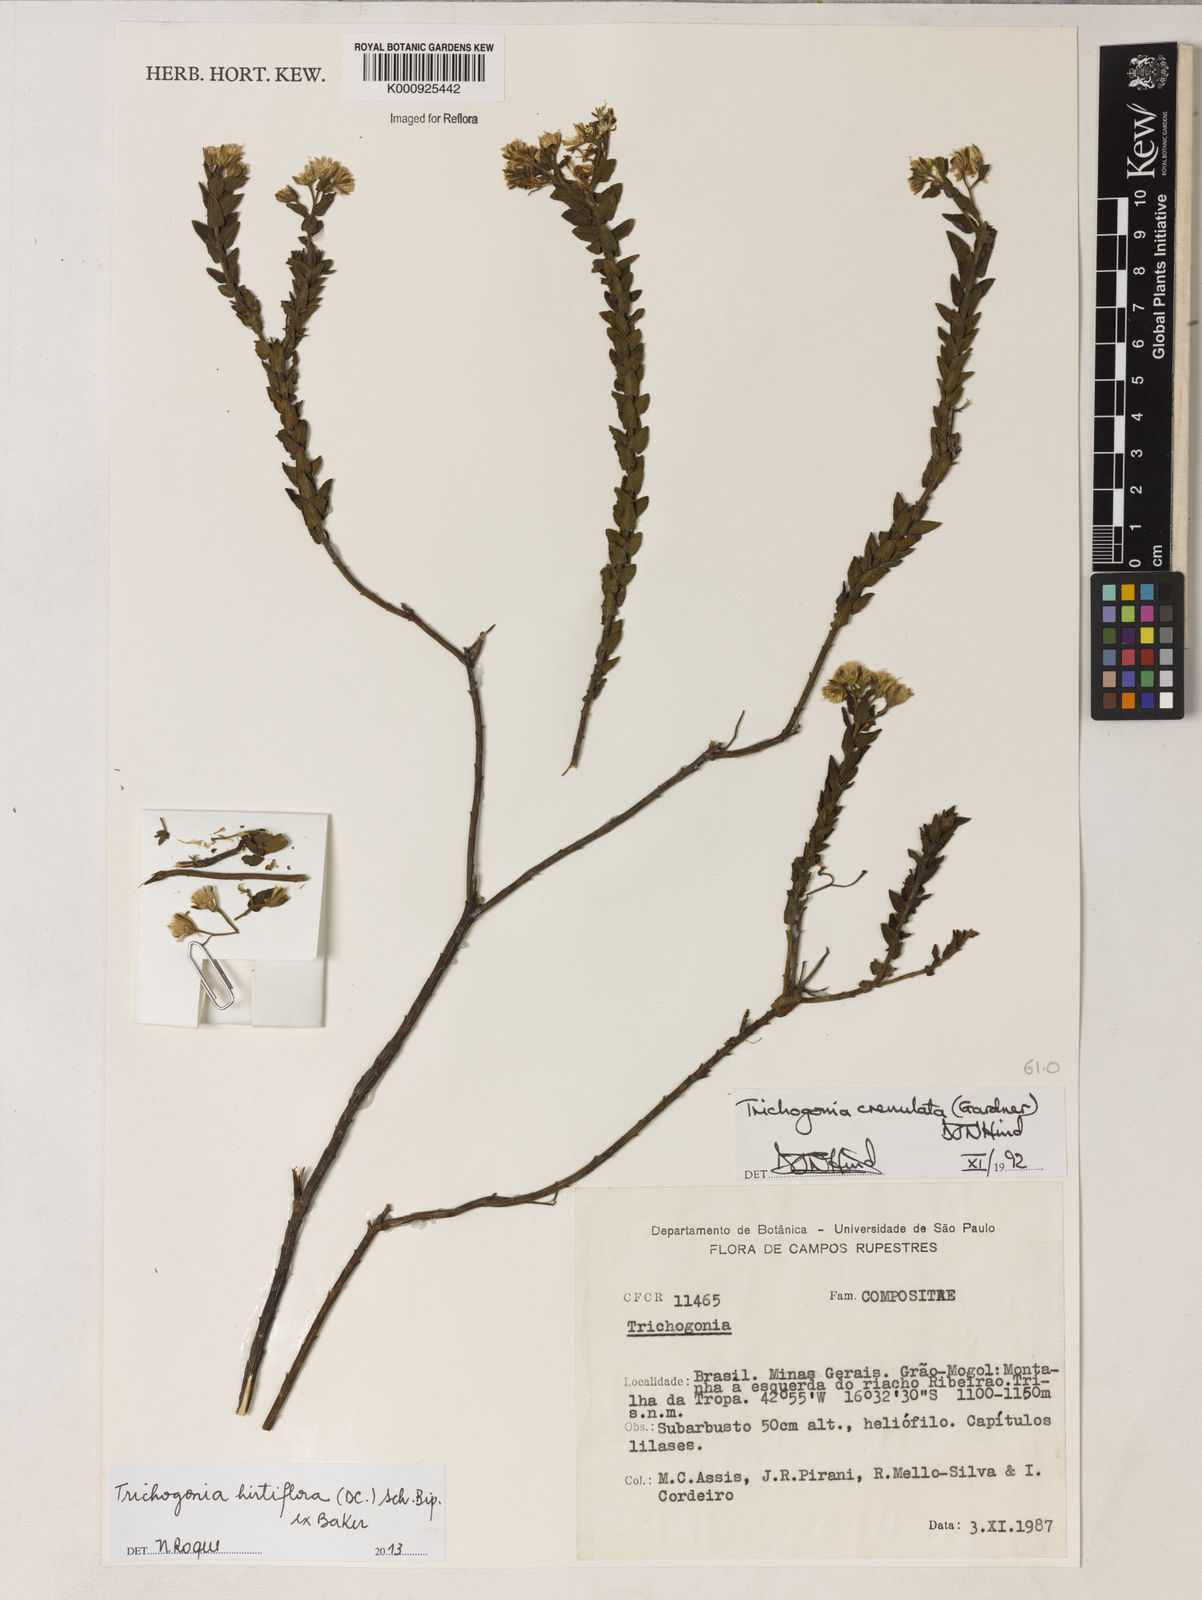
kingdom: Plantae
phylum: Tracheophyta
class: Magnoliopsida
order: Asterales
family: Asteraceae
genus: Trichogonia
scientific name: Trichogonia hirtiflora
